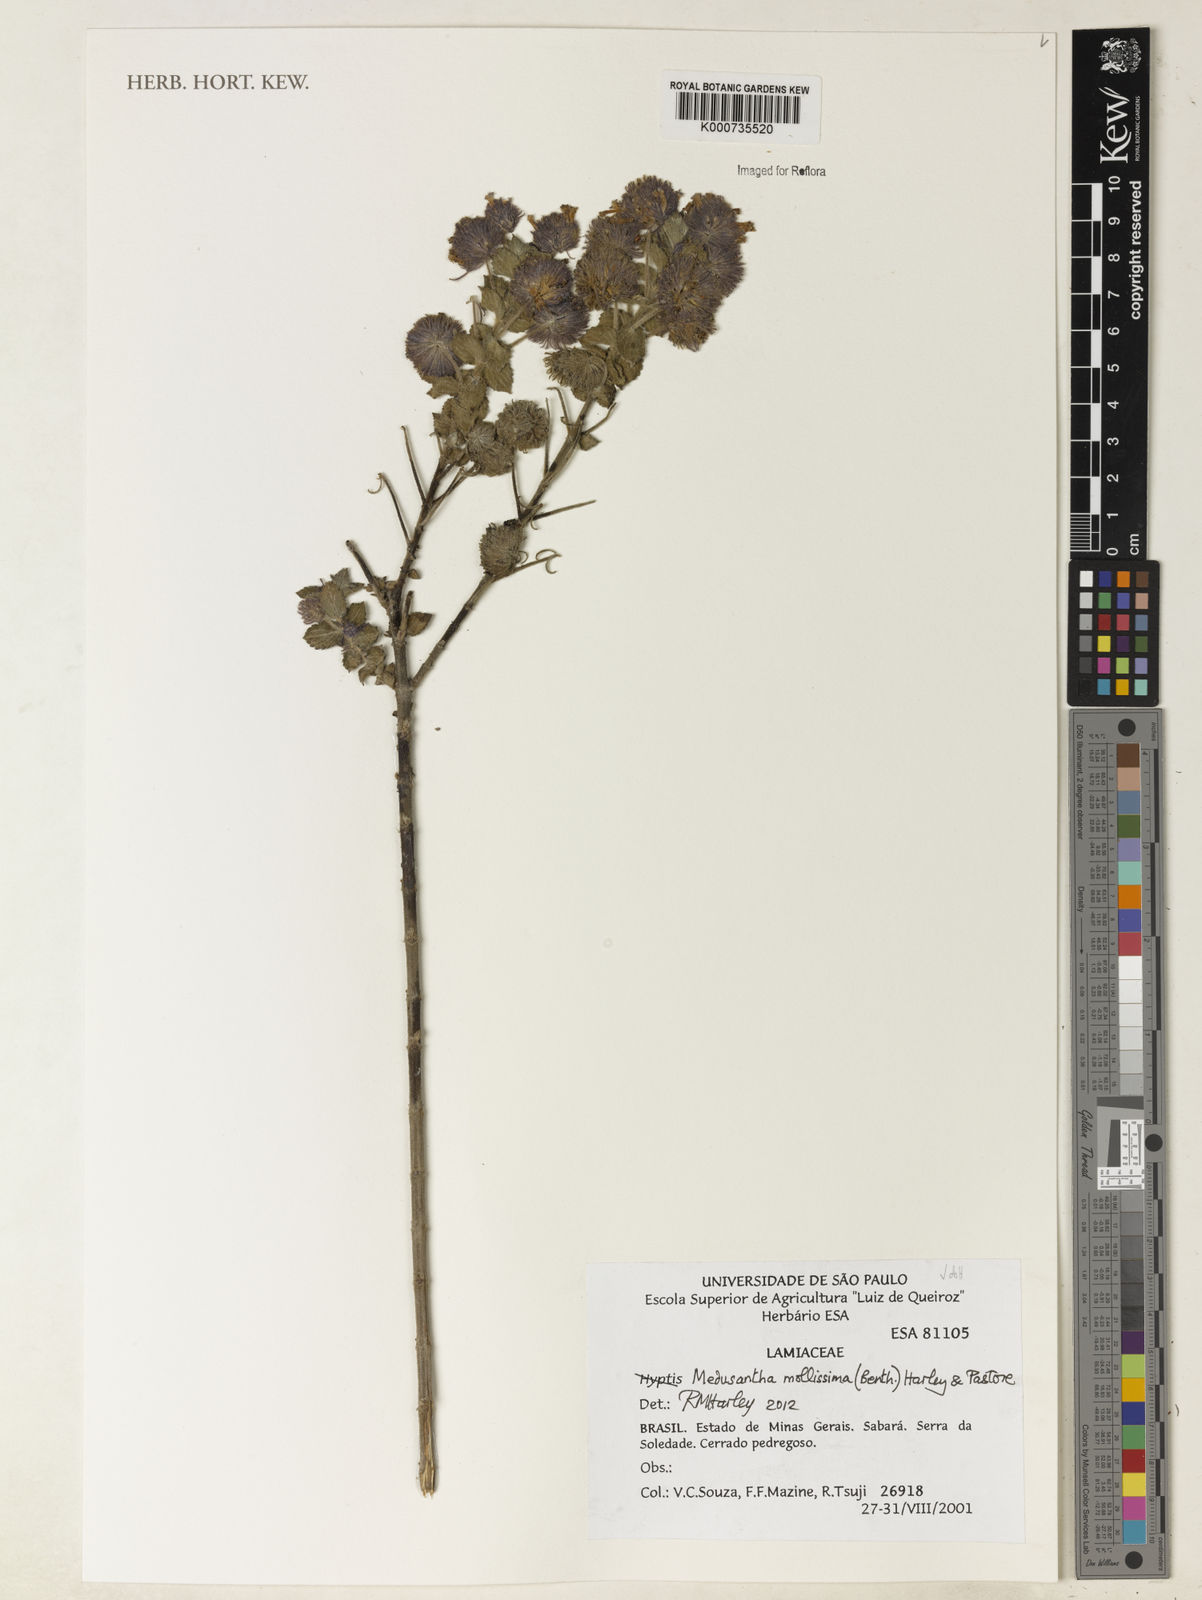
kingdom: Plantae
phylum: Tracheophyta
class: Magnoliopsida
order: Lamiales
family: Lamiaceae
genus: Medusantha
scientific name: Medusantha mollissima
